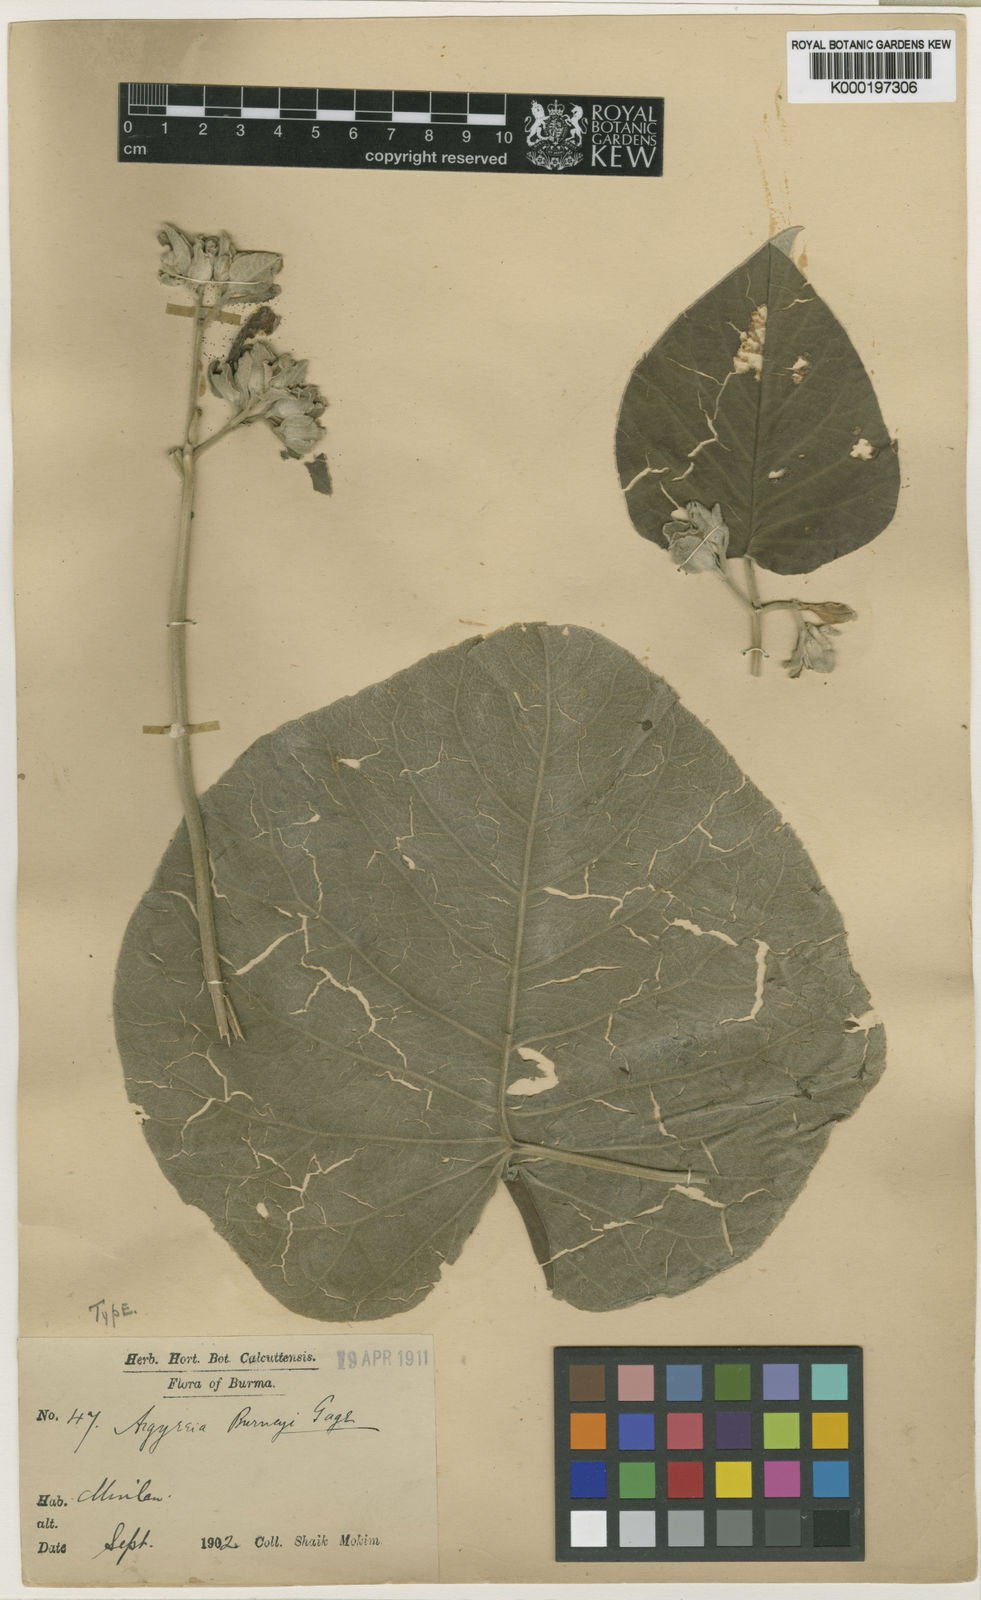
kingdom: Plantae
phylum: Tracheophyta
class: Magnoliopsida
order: Solanales
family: Convolvulaceae
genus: Argyreia
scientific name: Argyreia roxburghii
